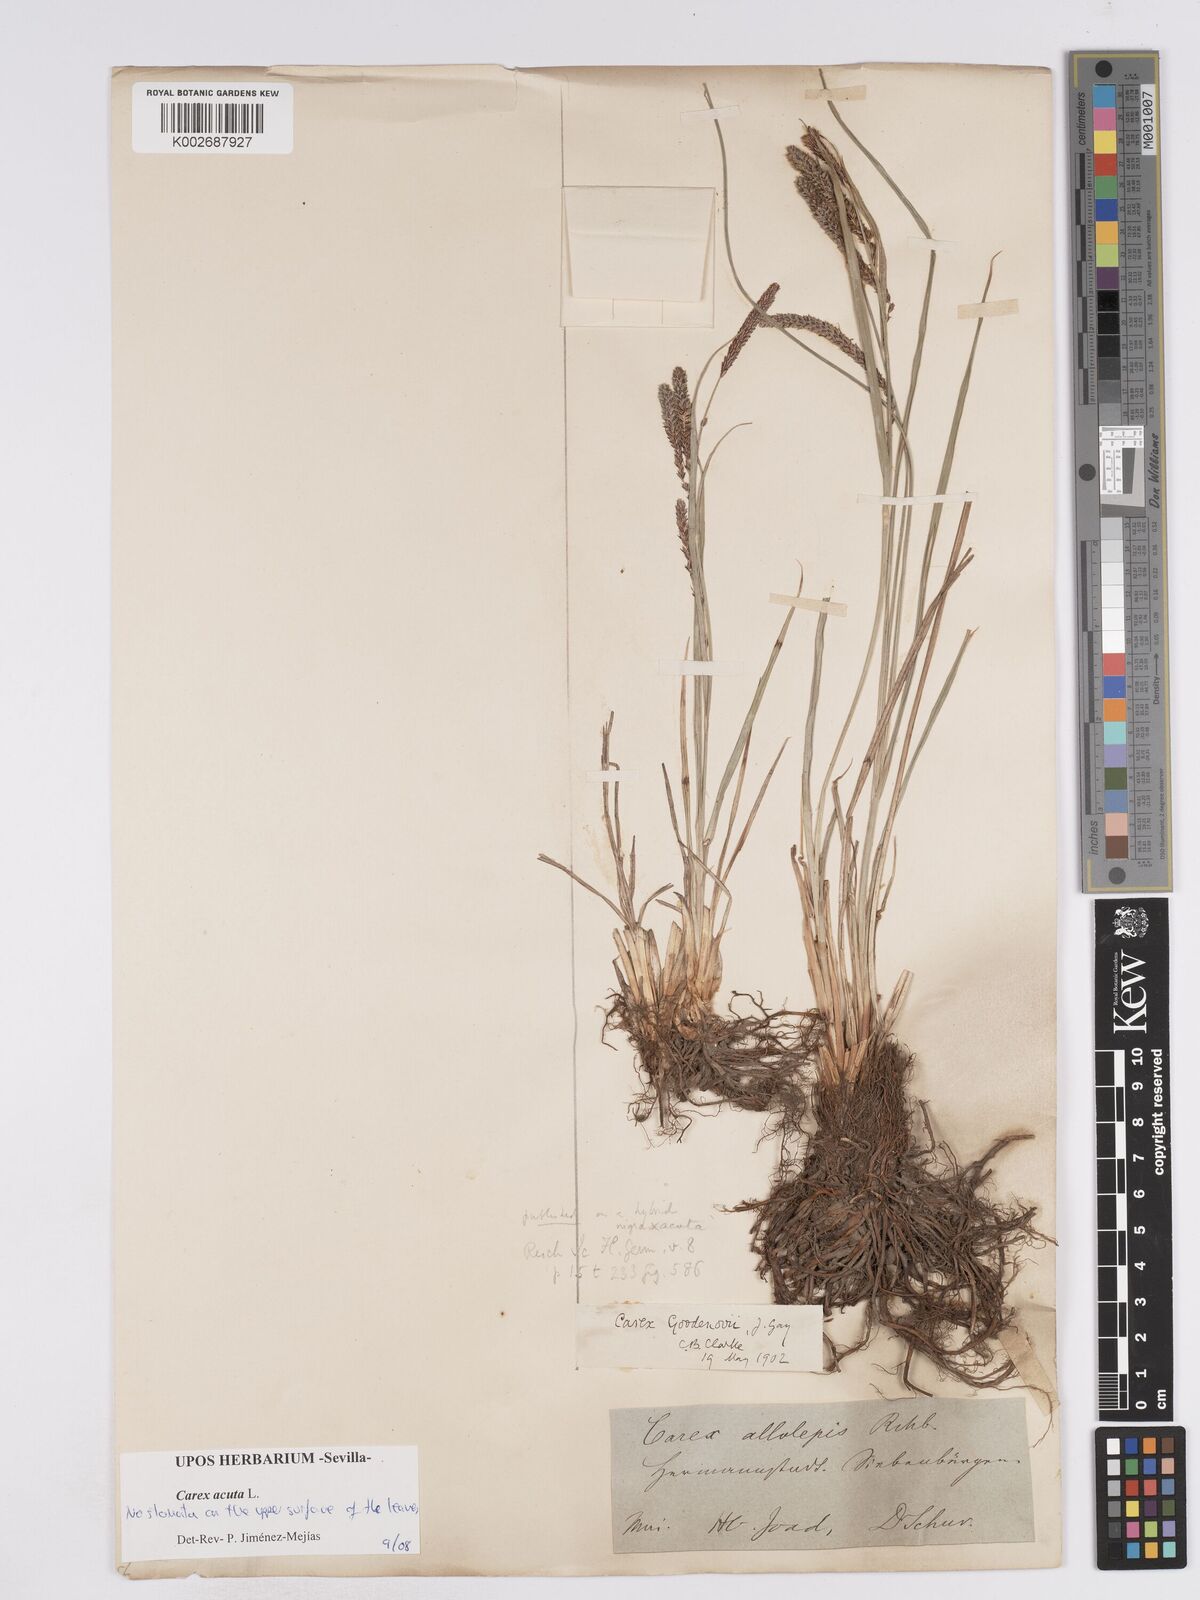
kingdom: Plantae
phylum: Tracheophyta
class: Liliopsida
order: Poales
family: Cyperaceae
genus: Carex
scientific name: Carex acuta
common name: Slender tufted-sedge
